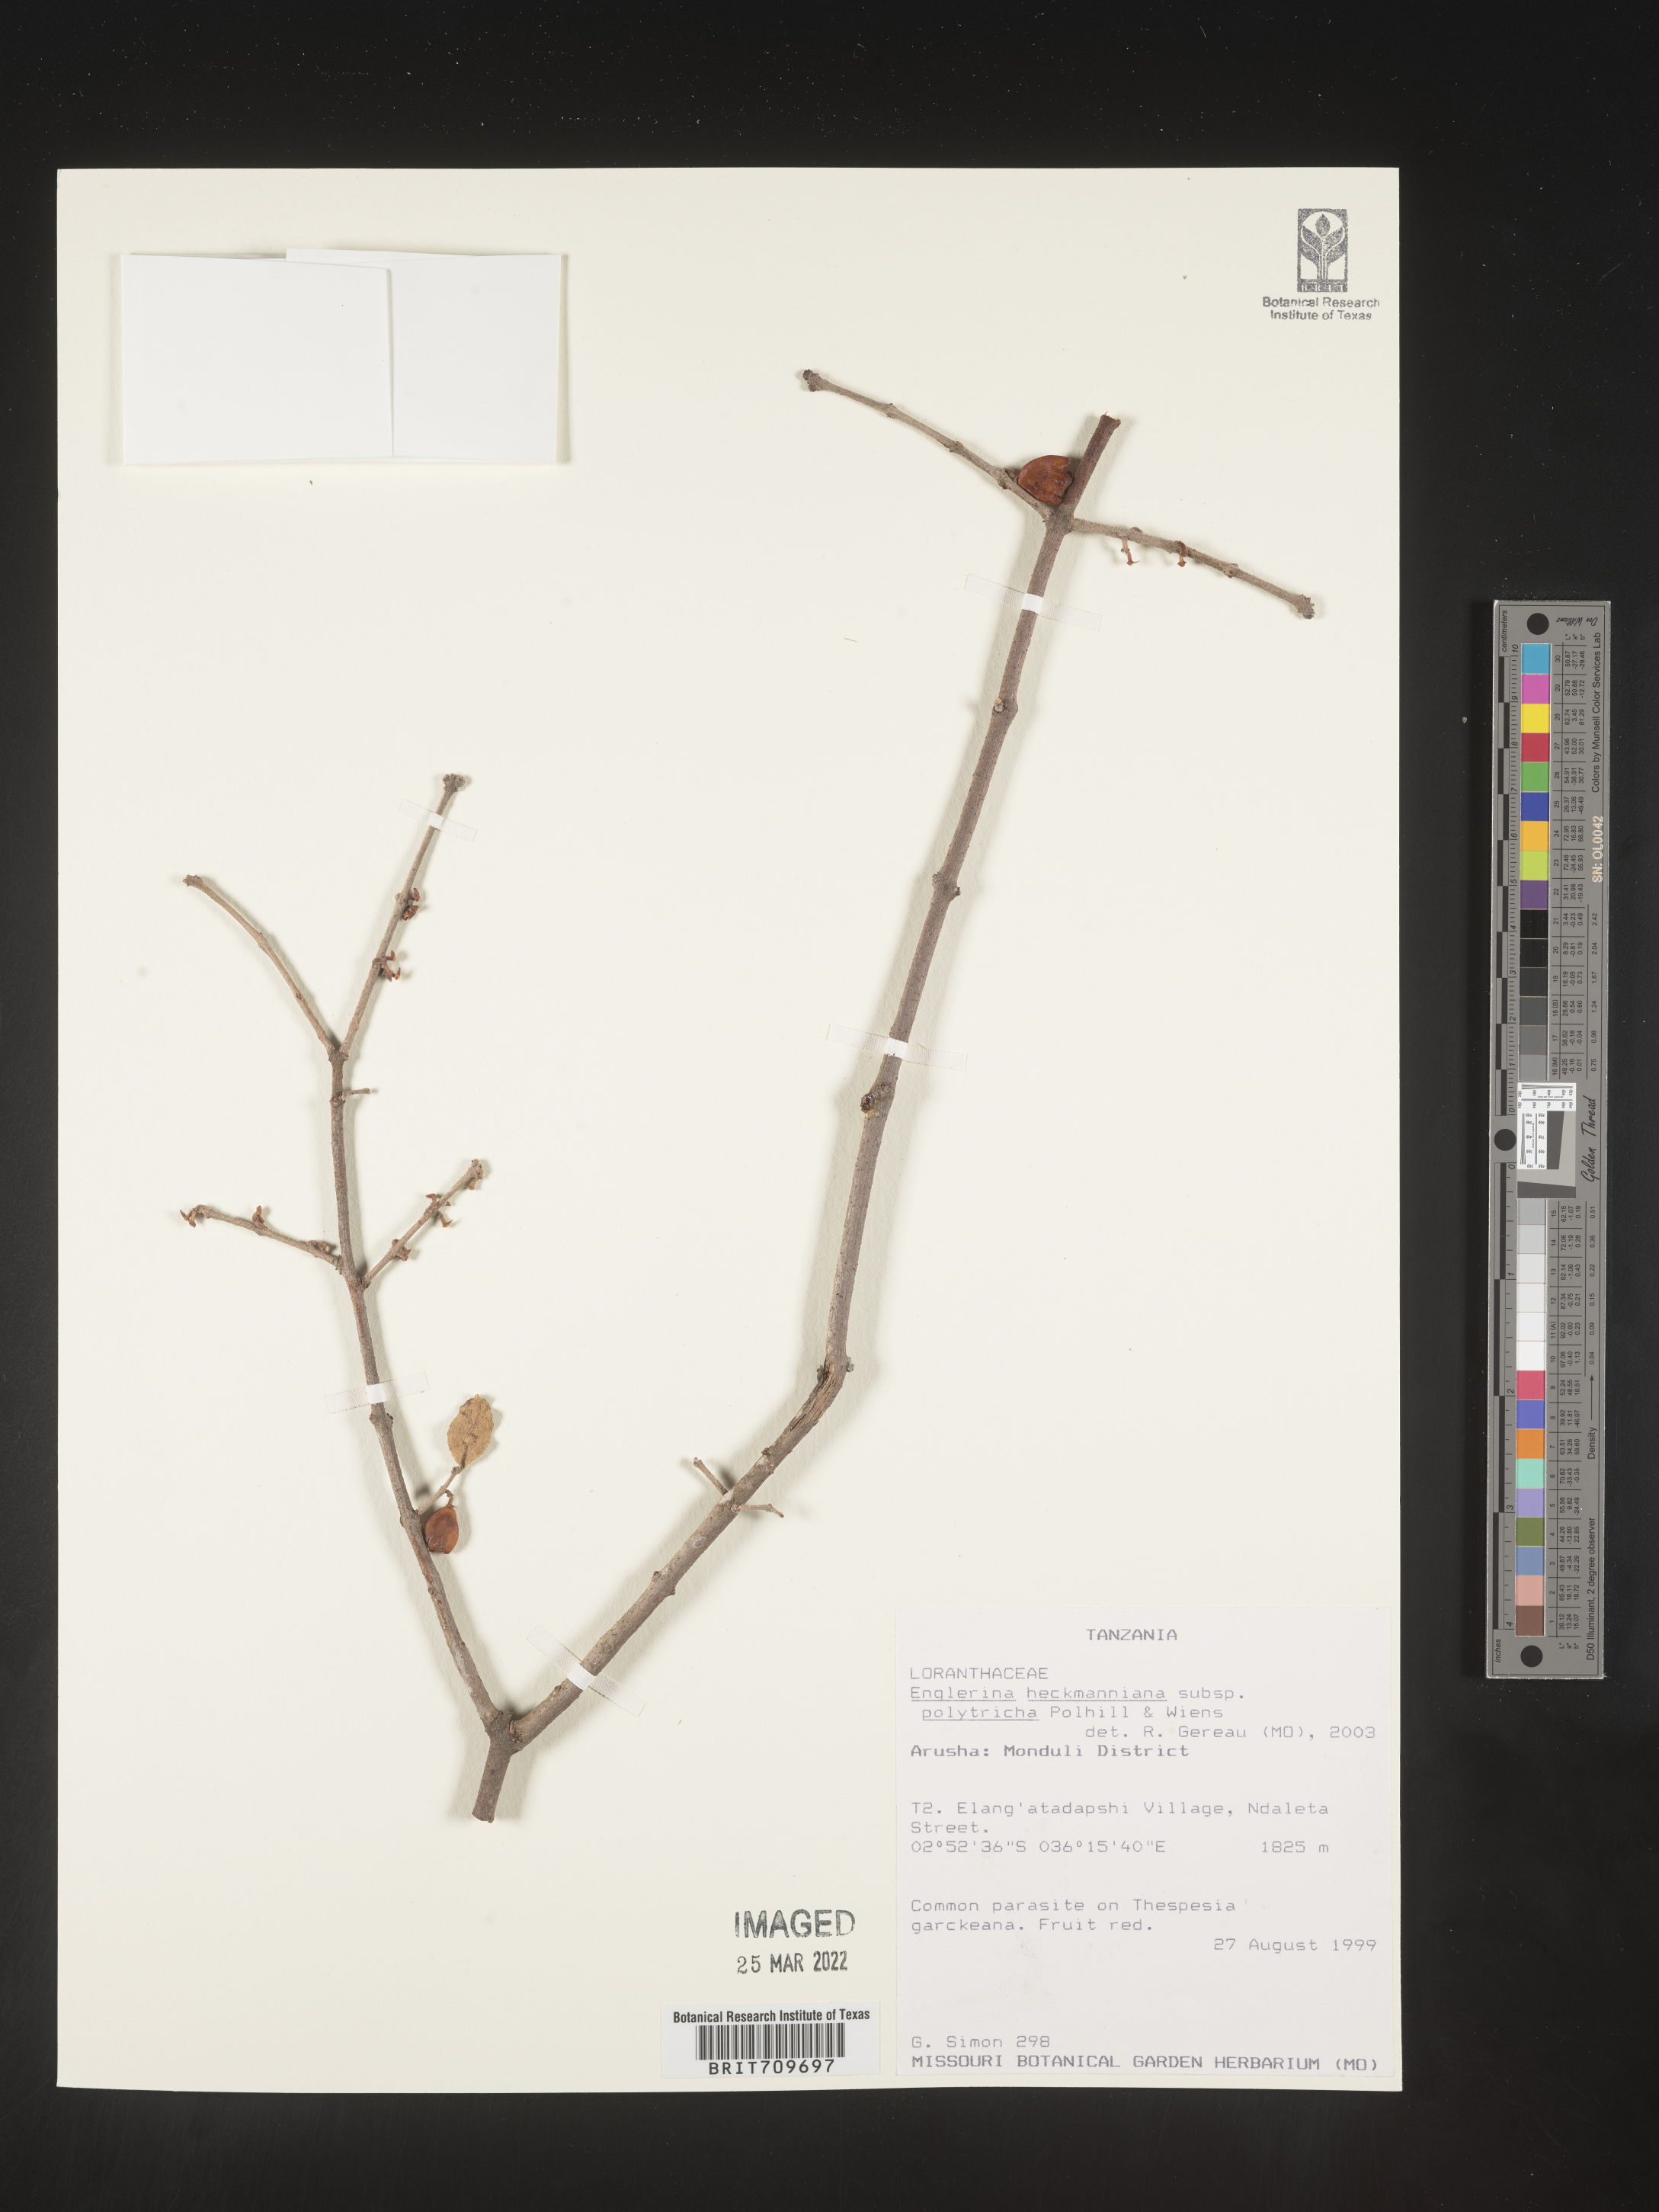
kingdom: Plantae
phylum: Tracheophyta
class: Magnoliopsida
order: Santalales
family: Loranthaceae
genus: Englerina
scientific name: Englerina
